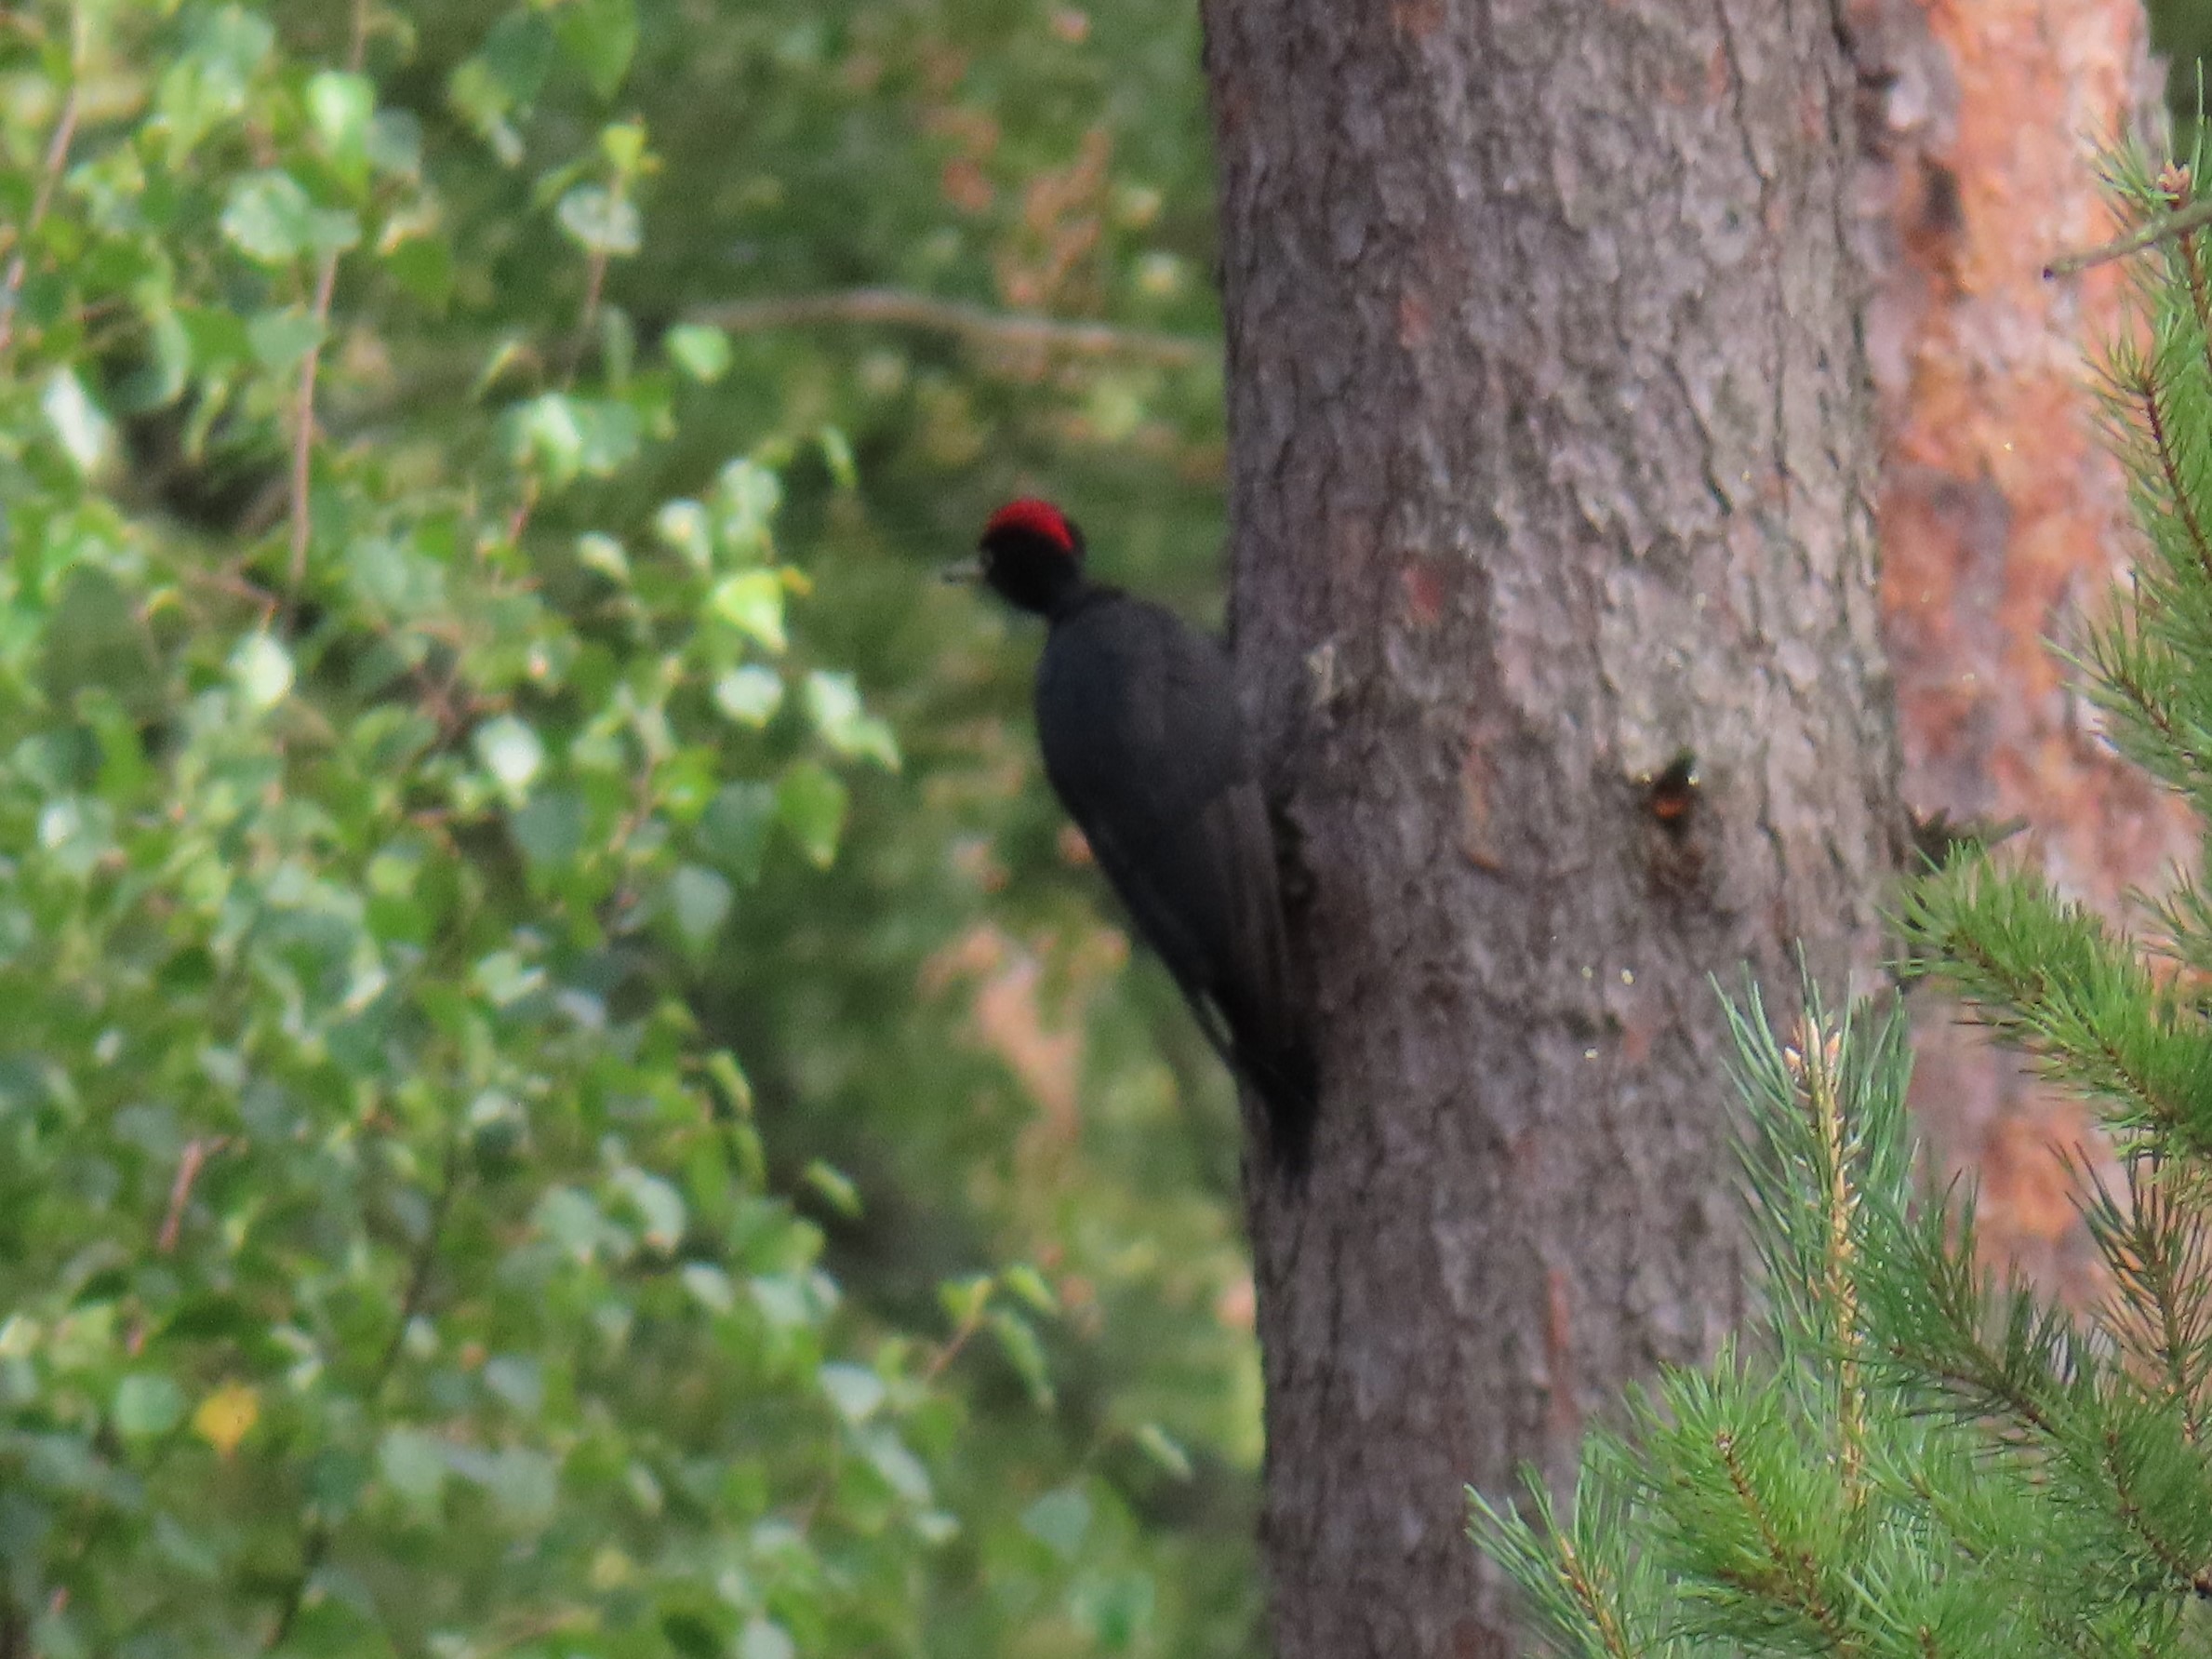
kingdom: Animalia
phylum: Chordata
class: Aves
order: Piciformes
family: Picidae
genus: Dryocopus
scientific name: Dryocopus martius
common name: Sortspætte
